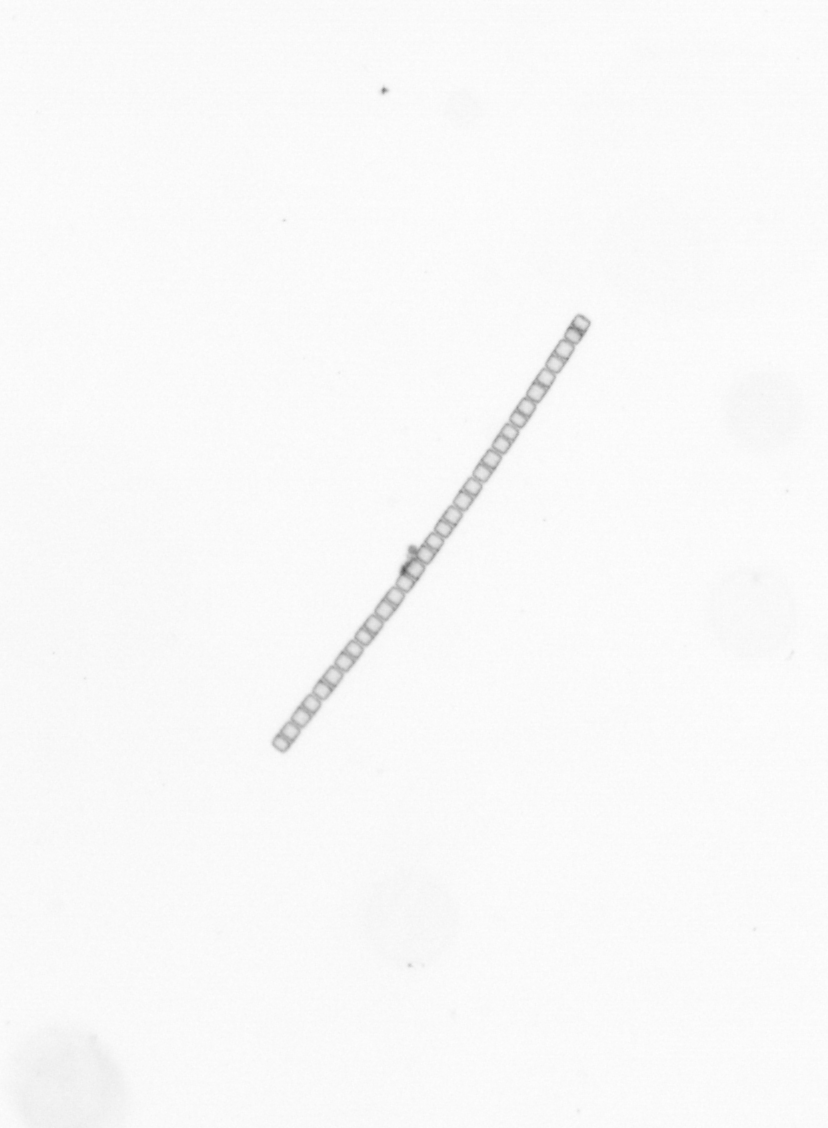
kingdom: Chromista
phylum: Ochrophyta
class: Bacillariophyceae
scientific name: Bacillariophyceae
